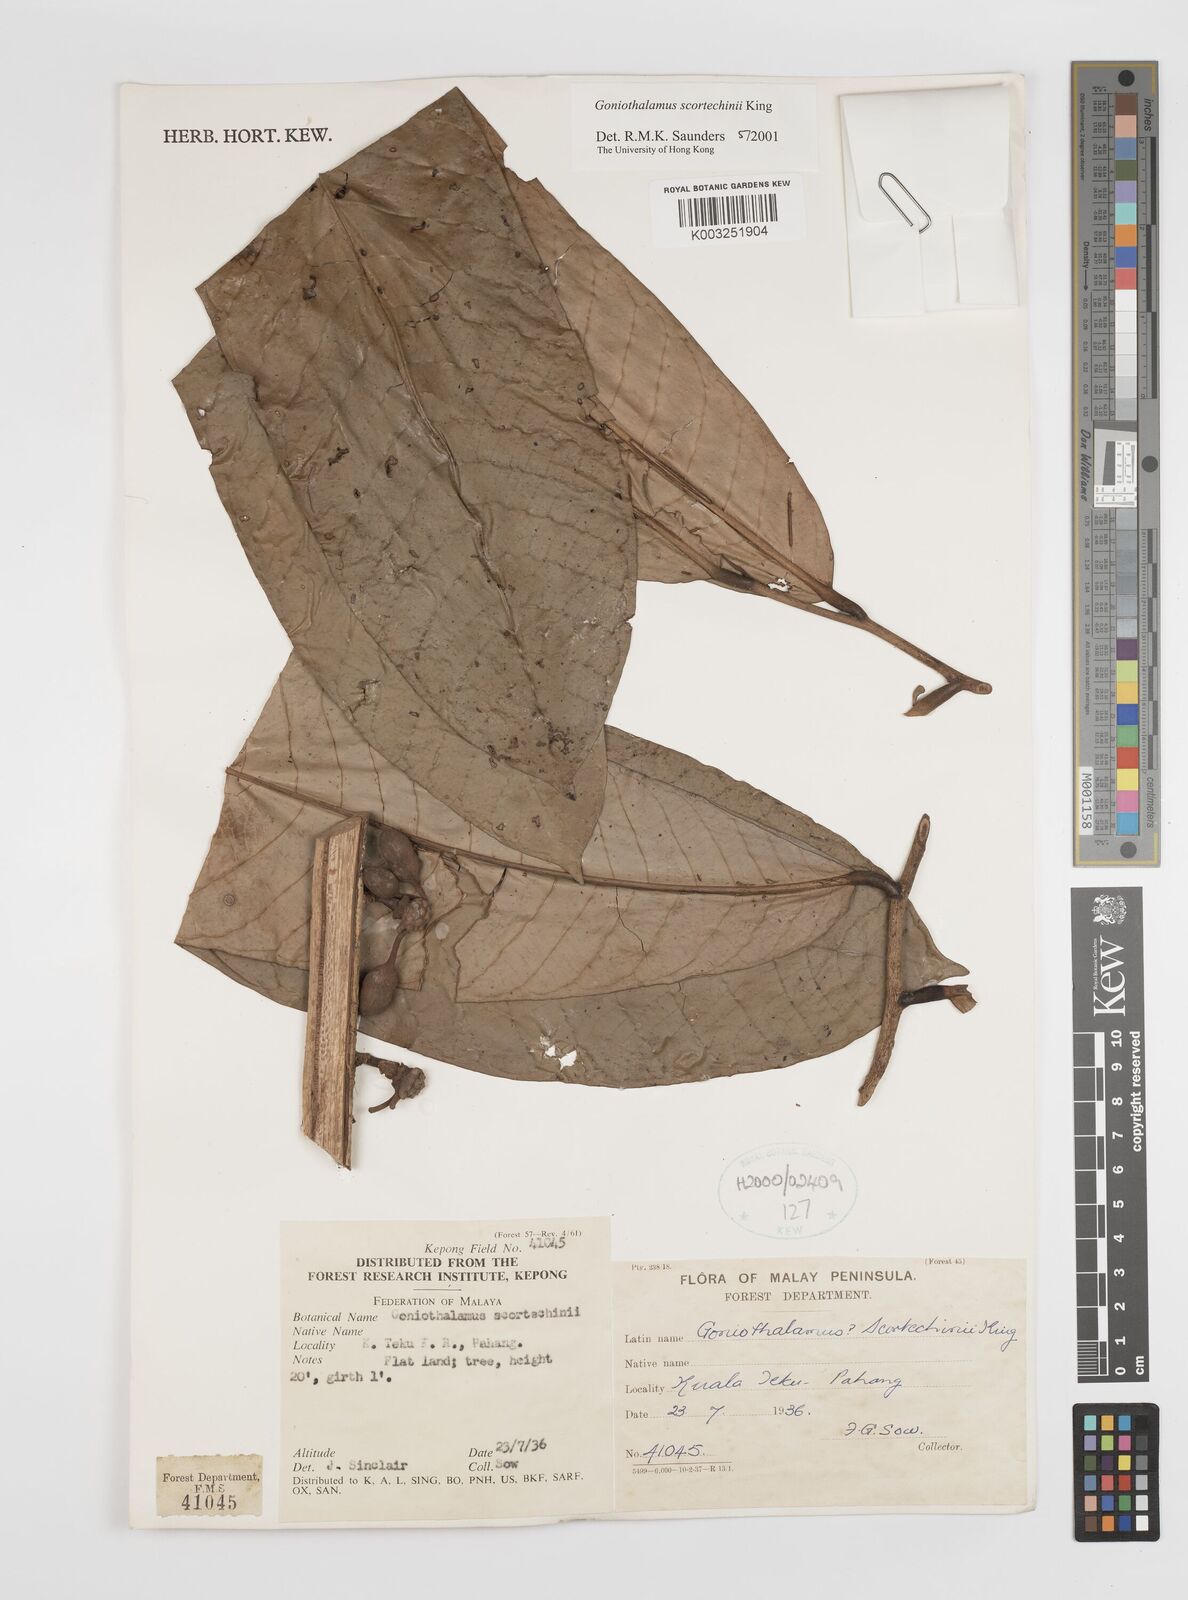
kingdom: Plantae
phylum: Tracheophyta
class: Magnoliopsida
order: Magnoliales
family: Annonaceae
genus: Goniothalamus
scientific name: Goniothalamus scortechinii
